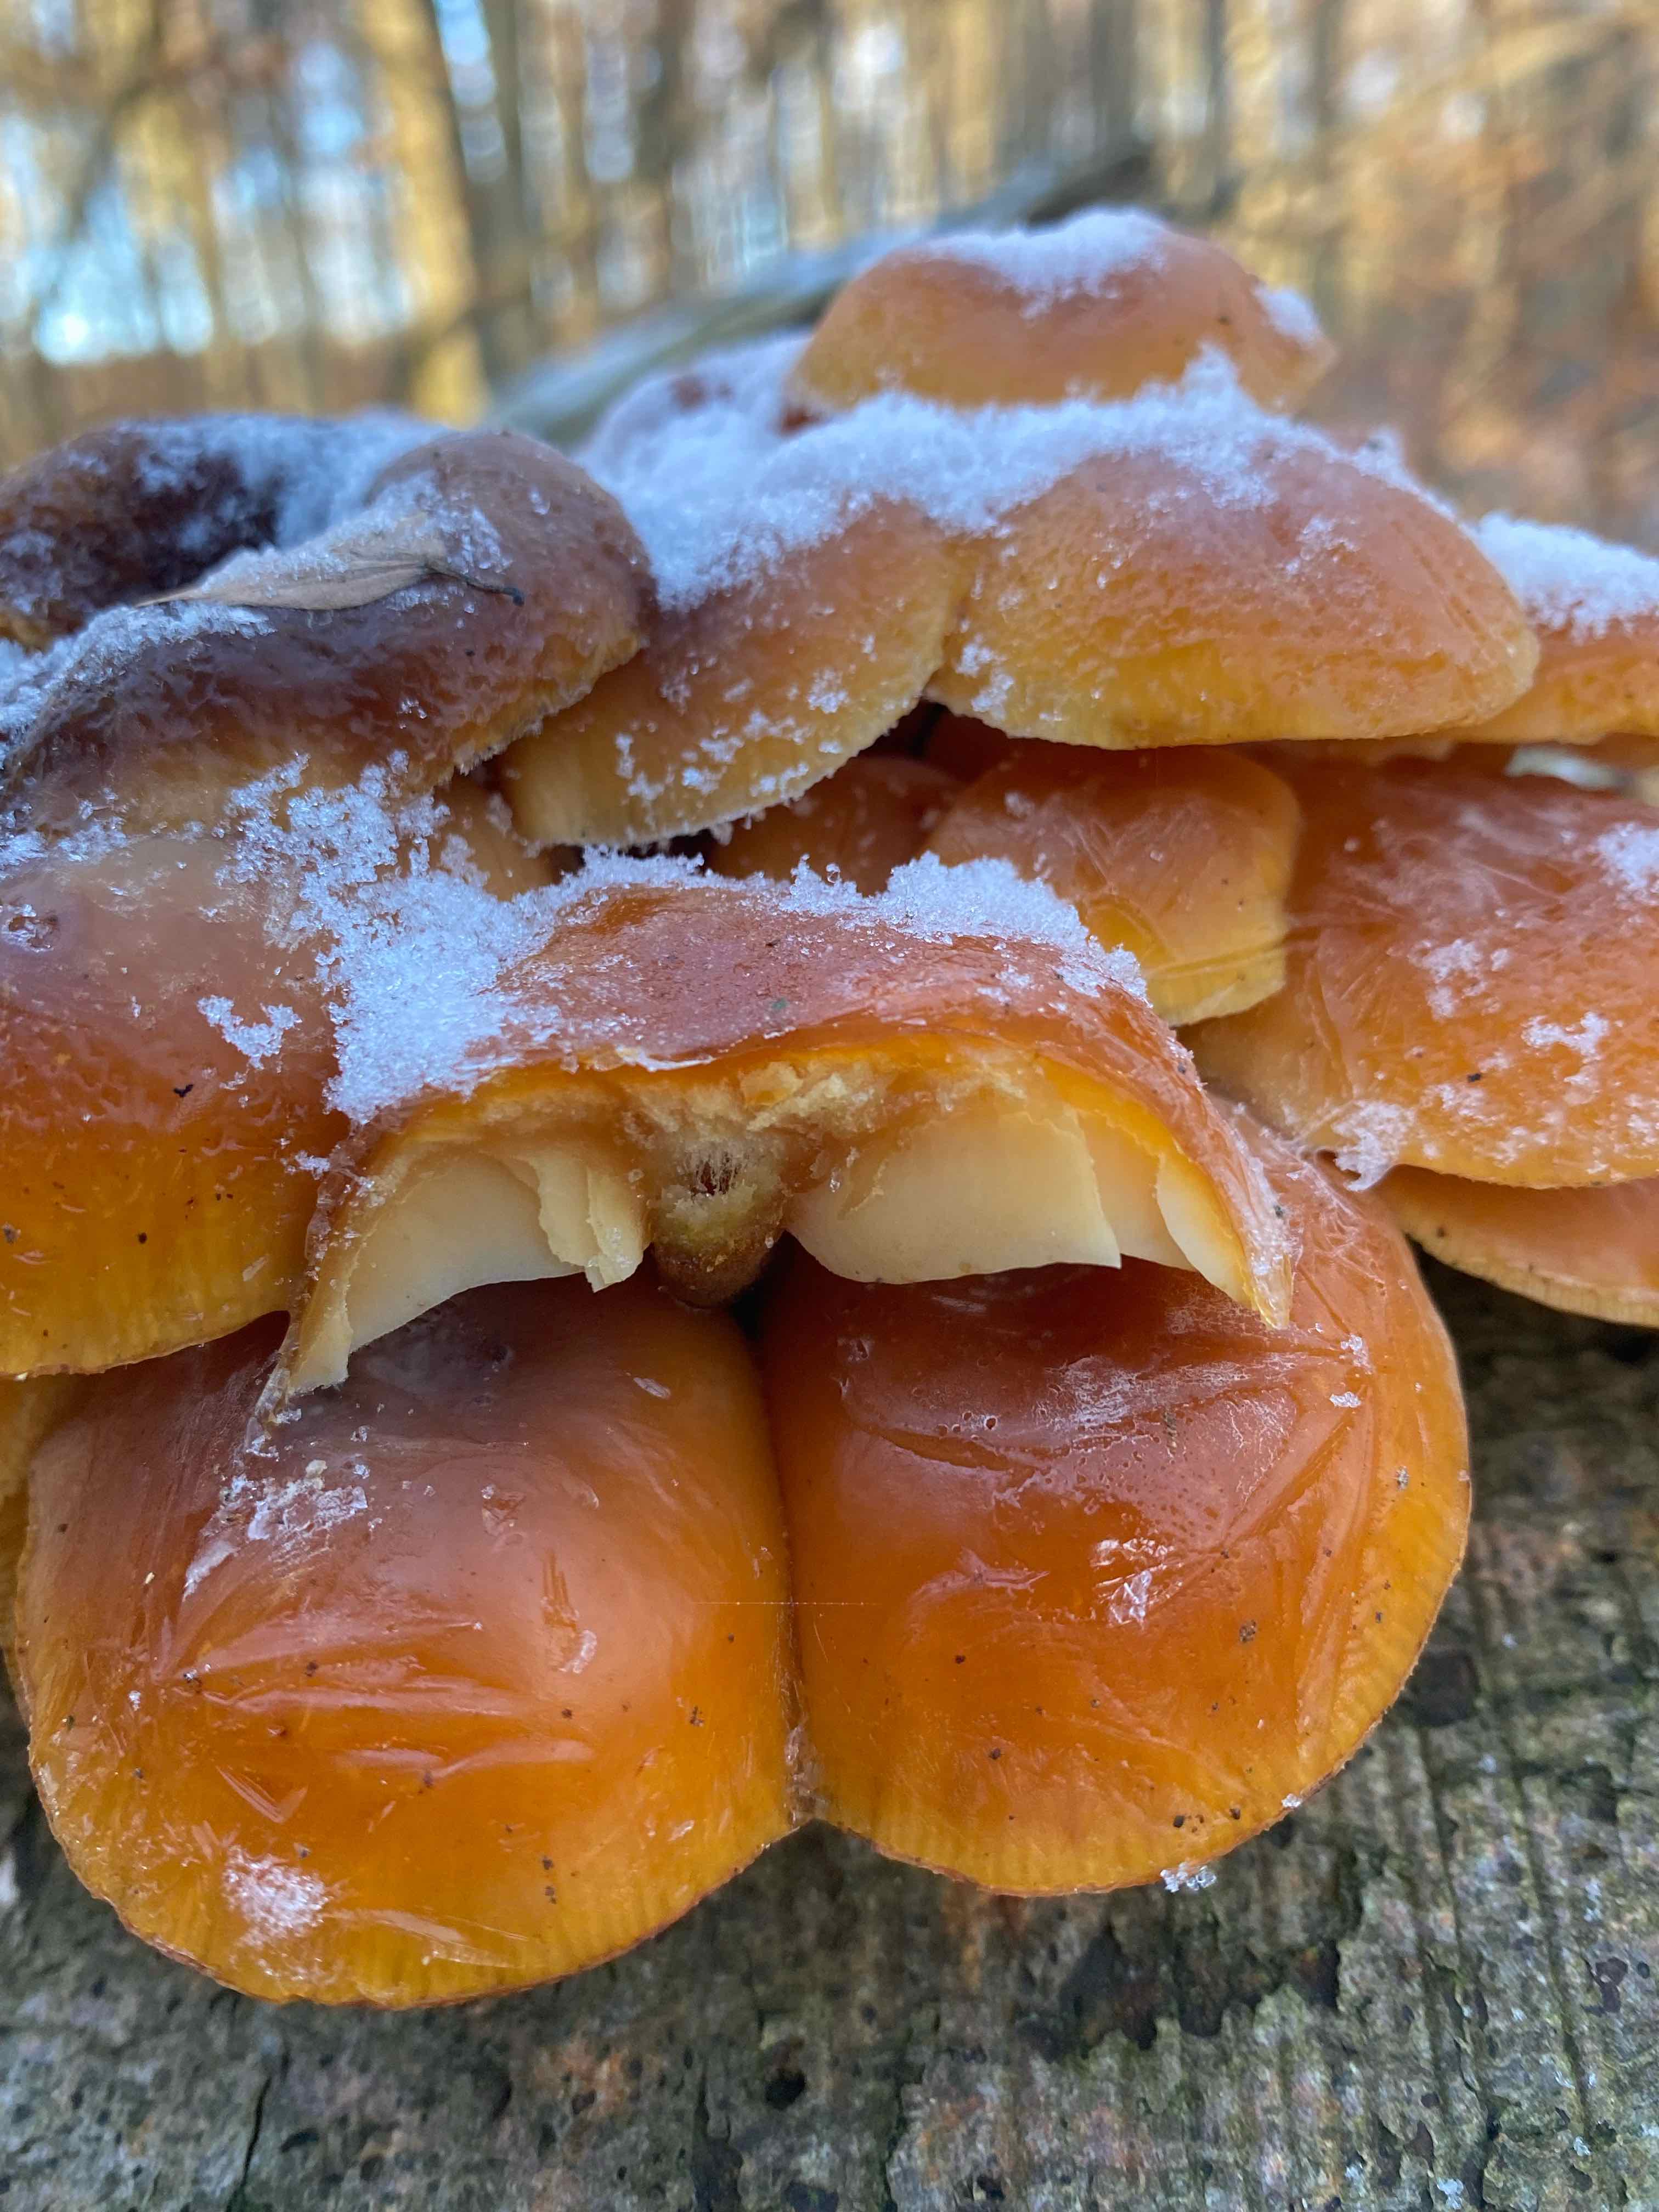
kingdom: Fungi
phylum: Basidiomycota
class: Agaricomycetes
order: Agaricales
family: Physalacriaceae
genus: Flammulina
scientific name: Flammulina velutipes
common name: gul fløjlsfod
